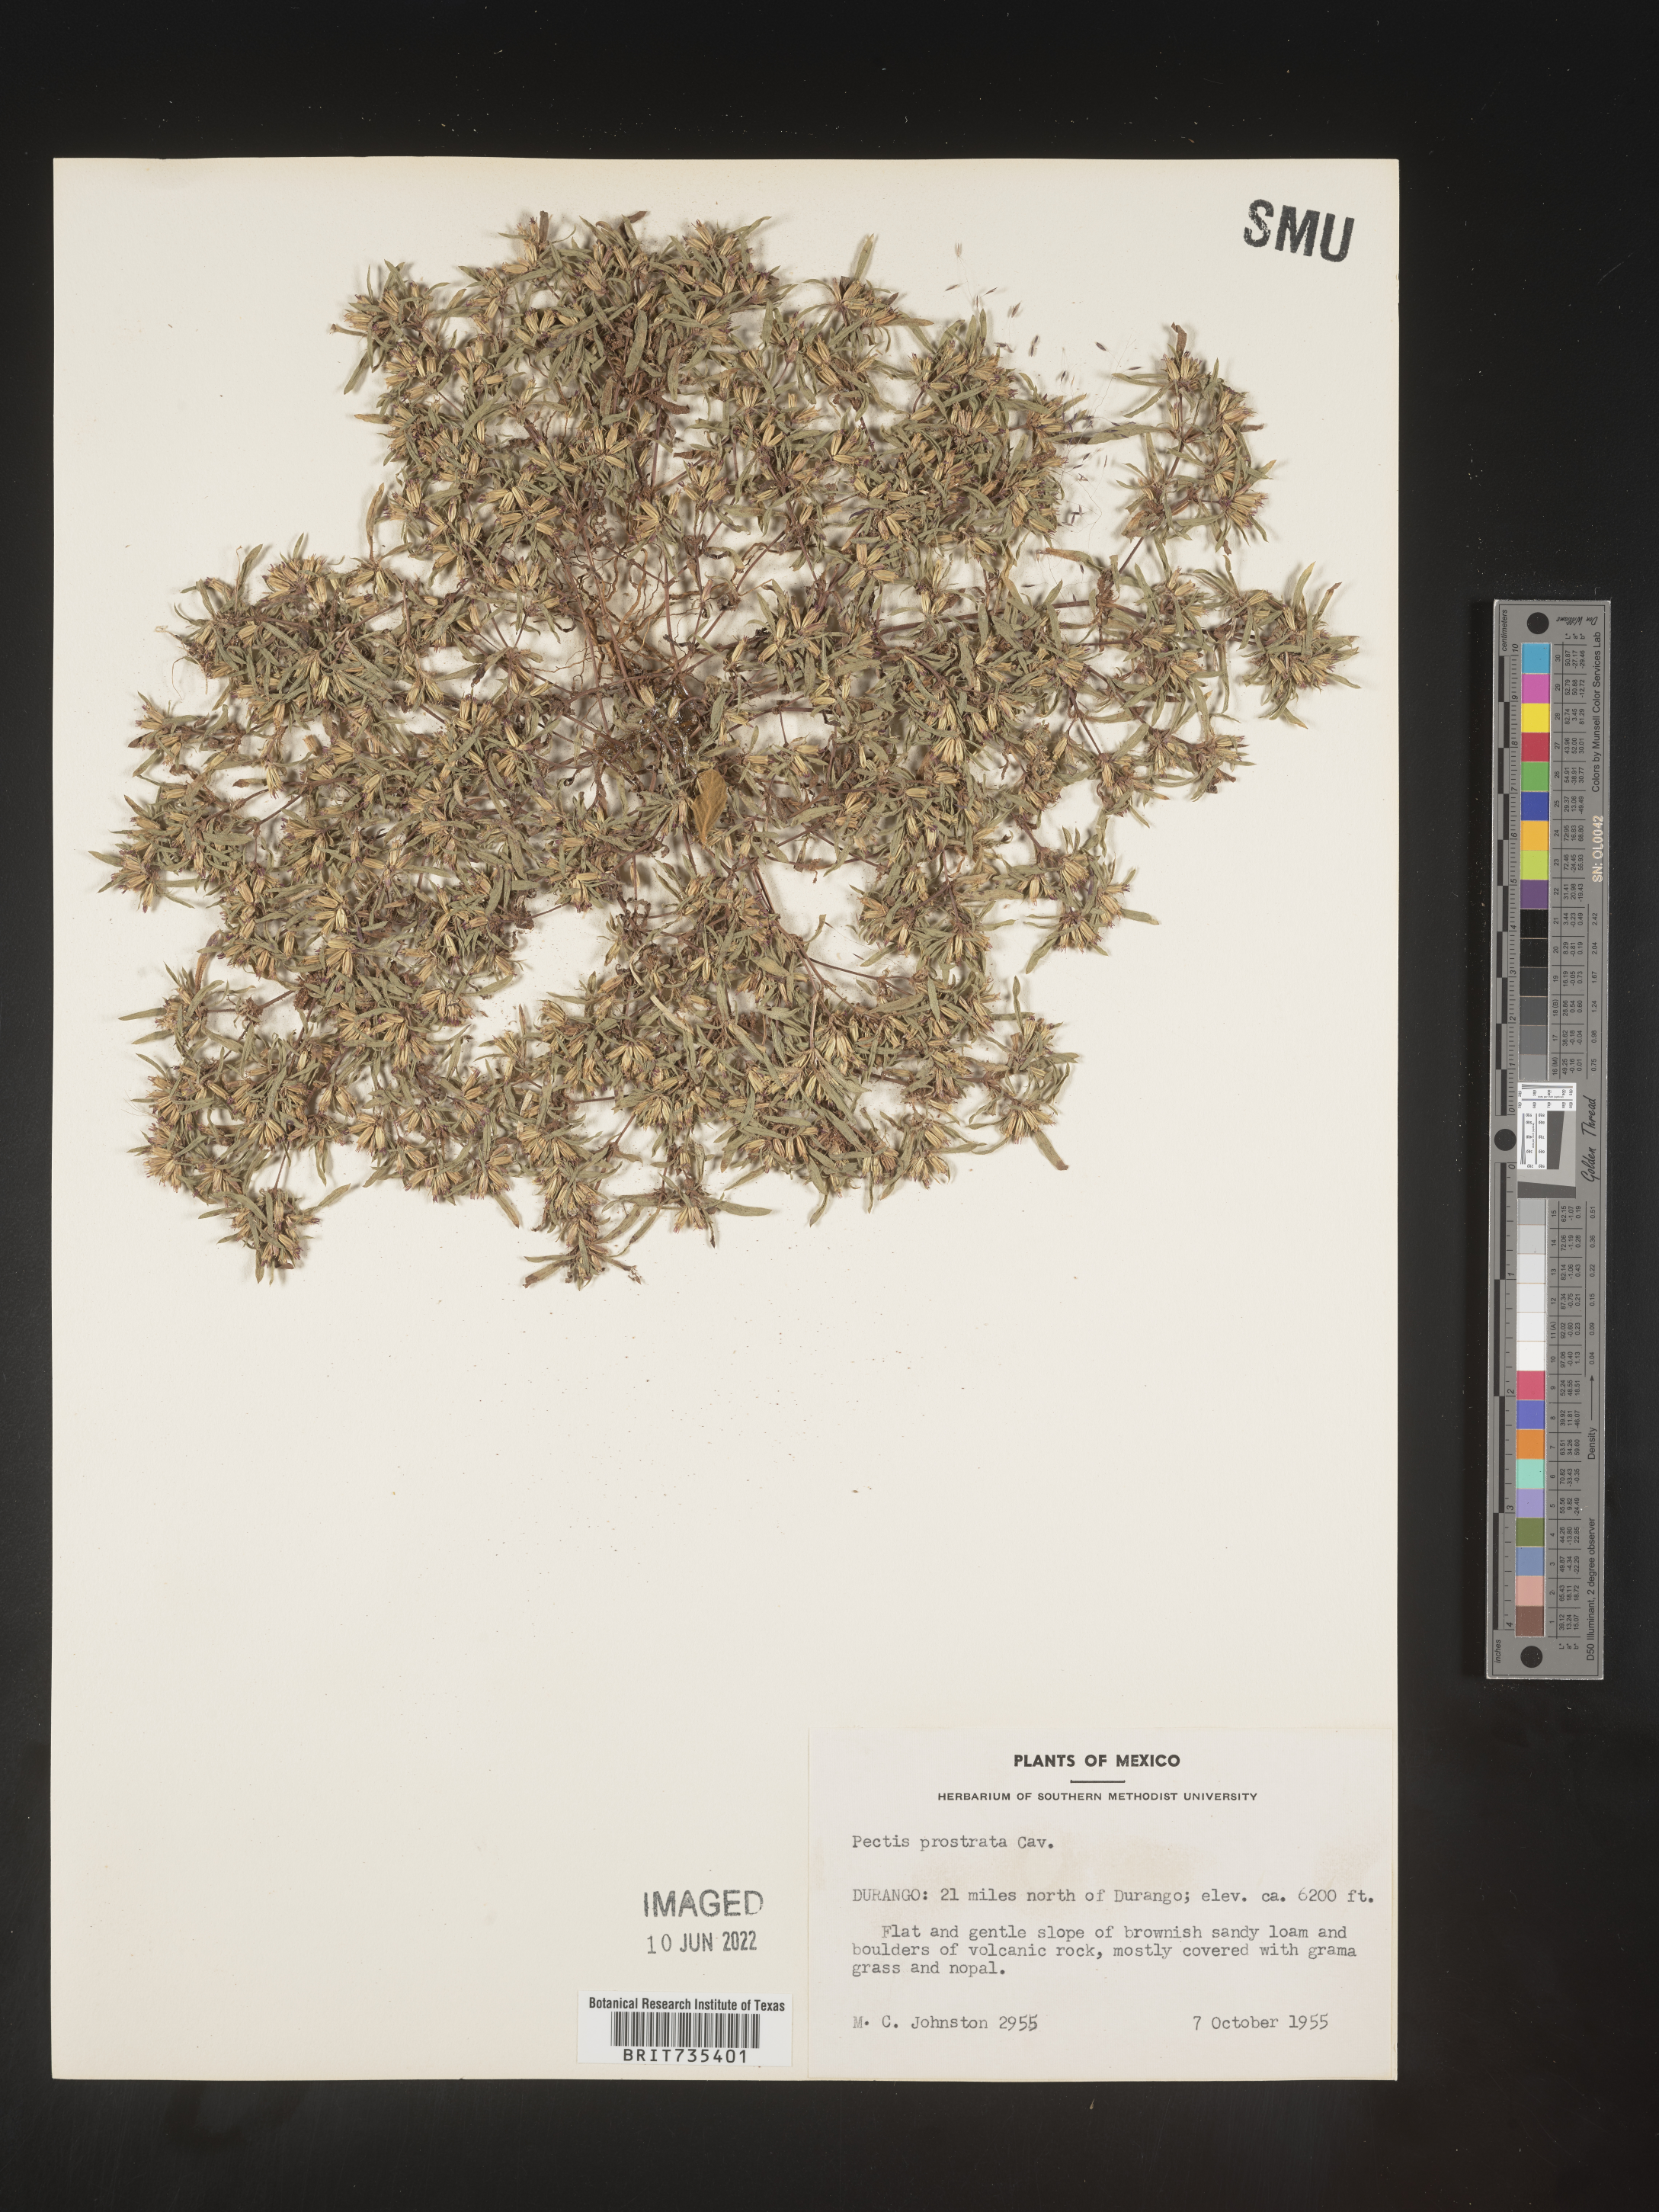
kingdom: Plantae
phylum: Tracheophyta
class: Magnoliopsida
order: Asterales
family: Asteraceae
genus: Pectis
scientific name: Pectis
